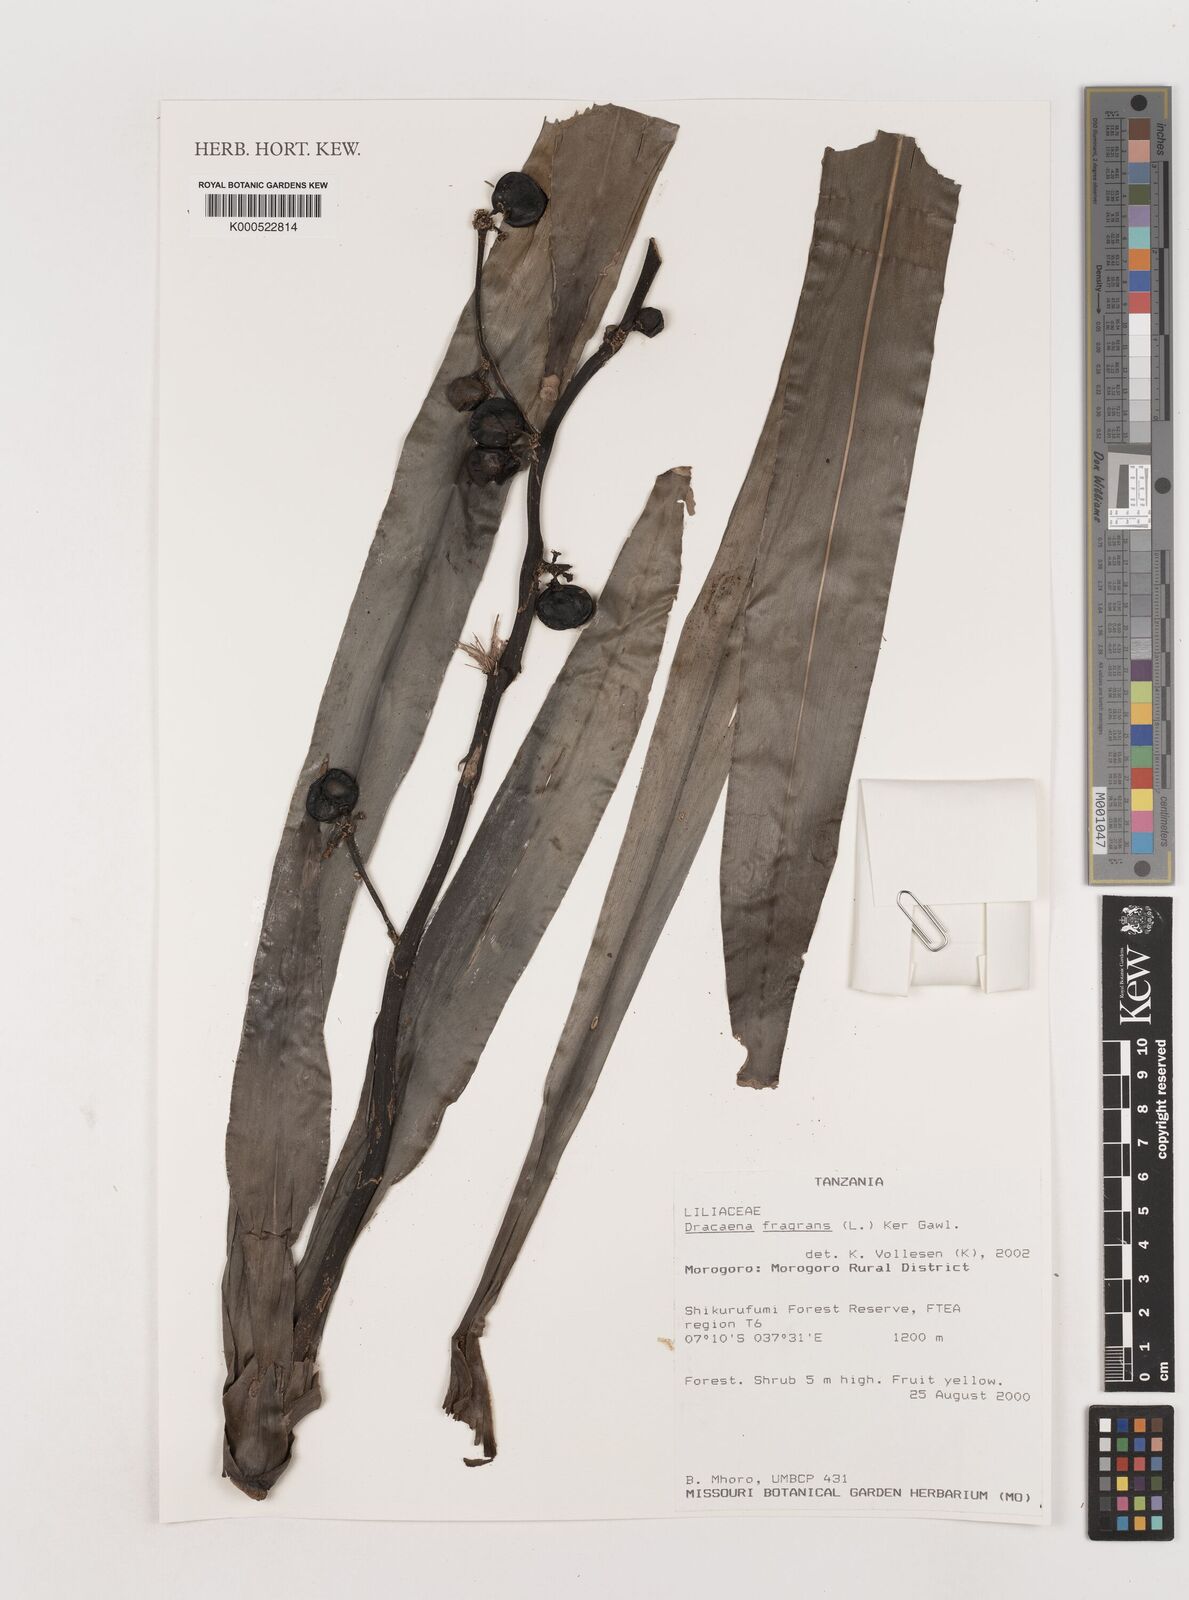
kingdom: Plantae
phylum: Tracheophyta
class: Liliopsida
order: Asparagales
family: Asparagaceae
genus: Dracaena
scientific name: Dracaena fragrans
